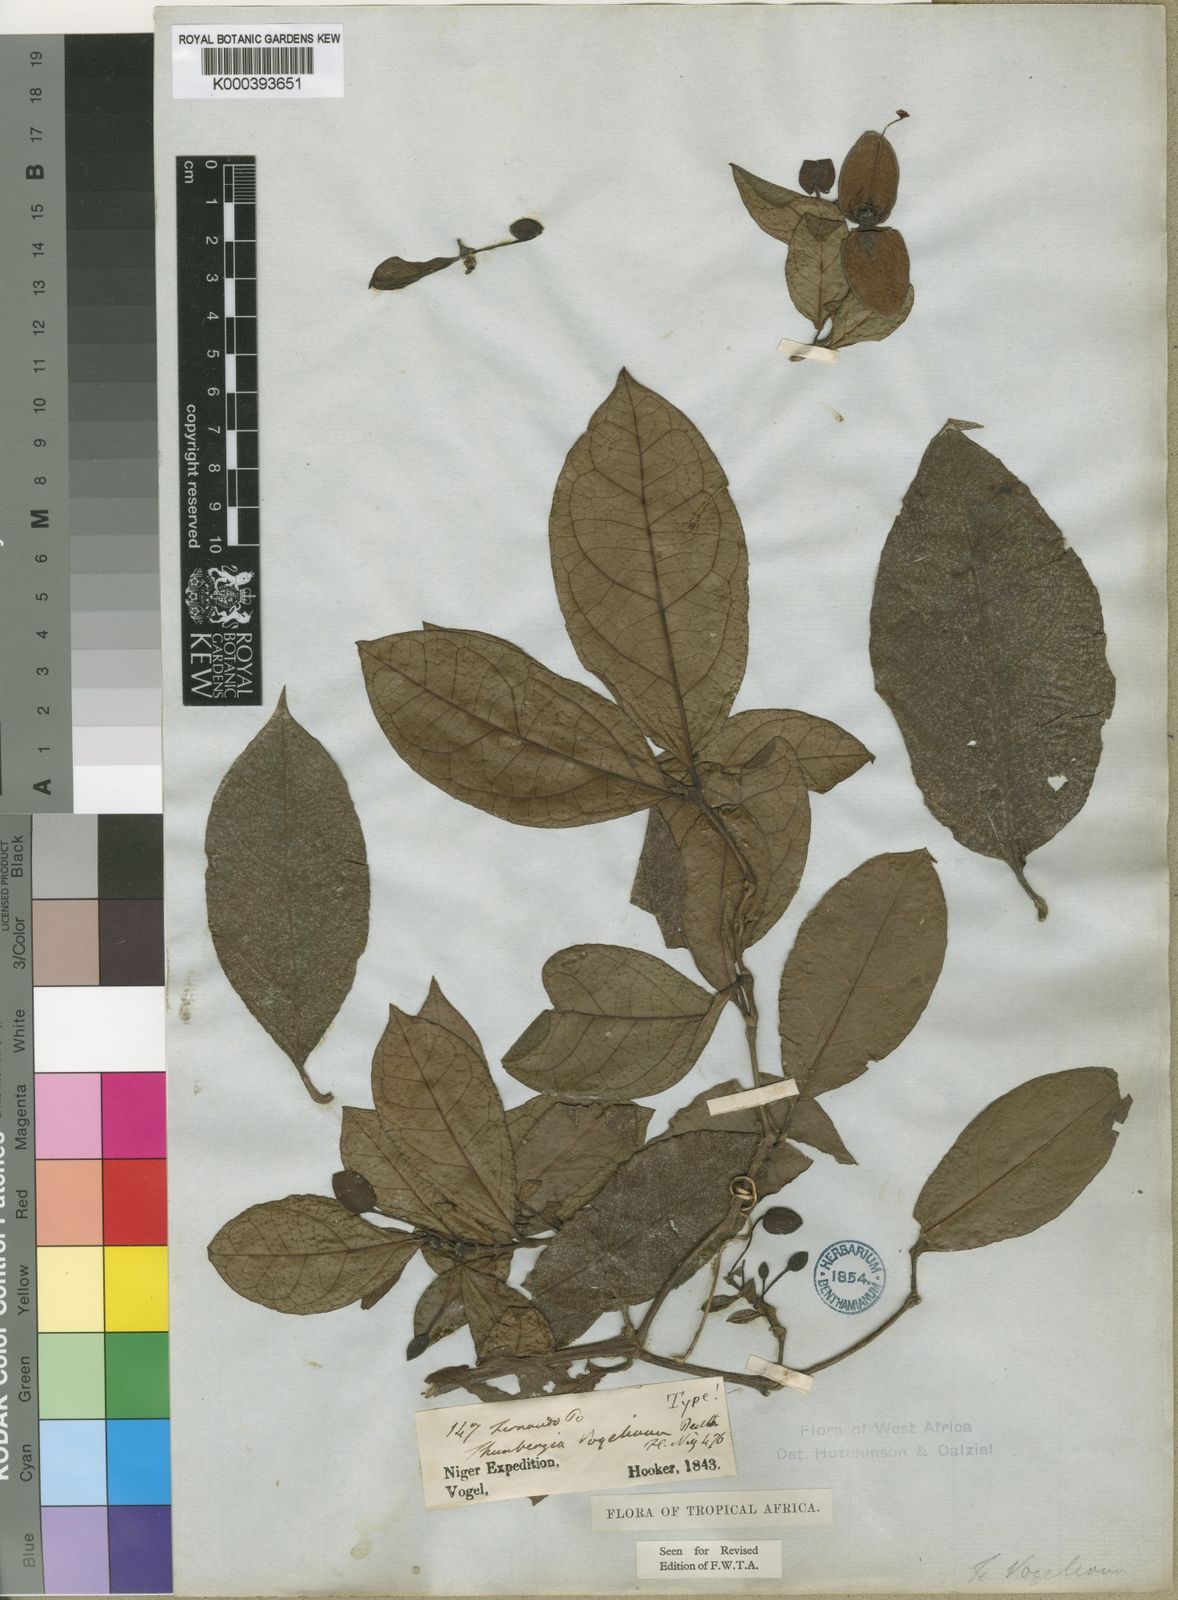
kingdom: Plantae
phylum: Tracheophyta
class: Magnoliopsida
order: Lamiales
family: Acanthaceae
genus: Thunbergia
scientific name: Thunbergia vogeliana
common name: Acanthaceae
